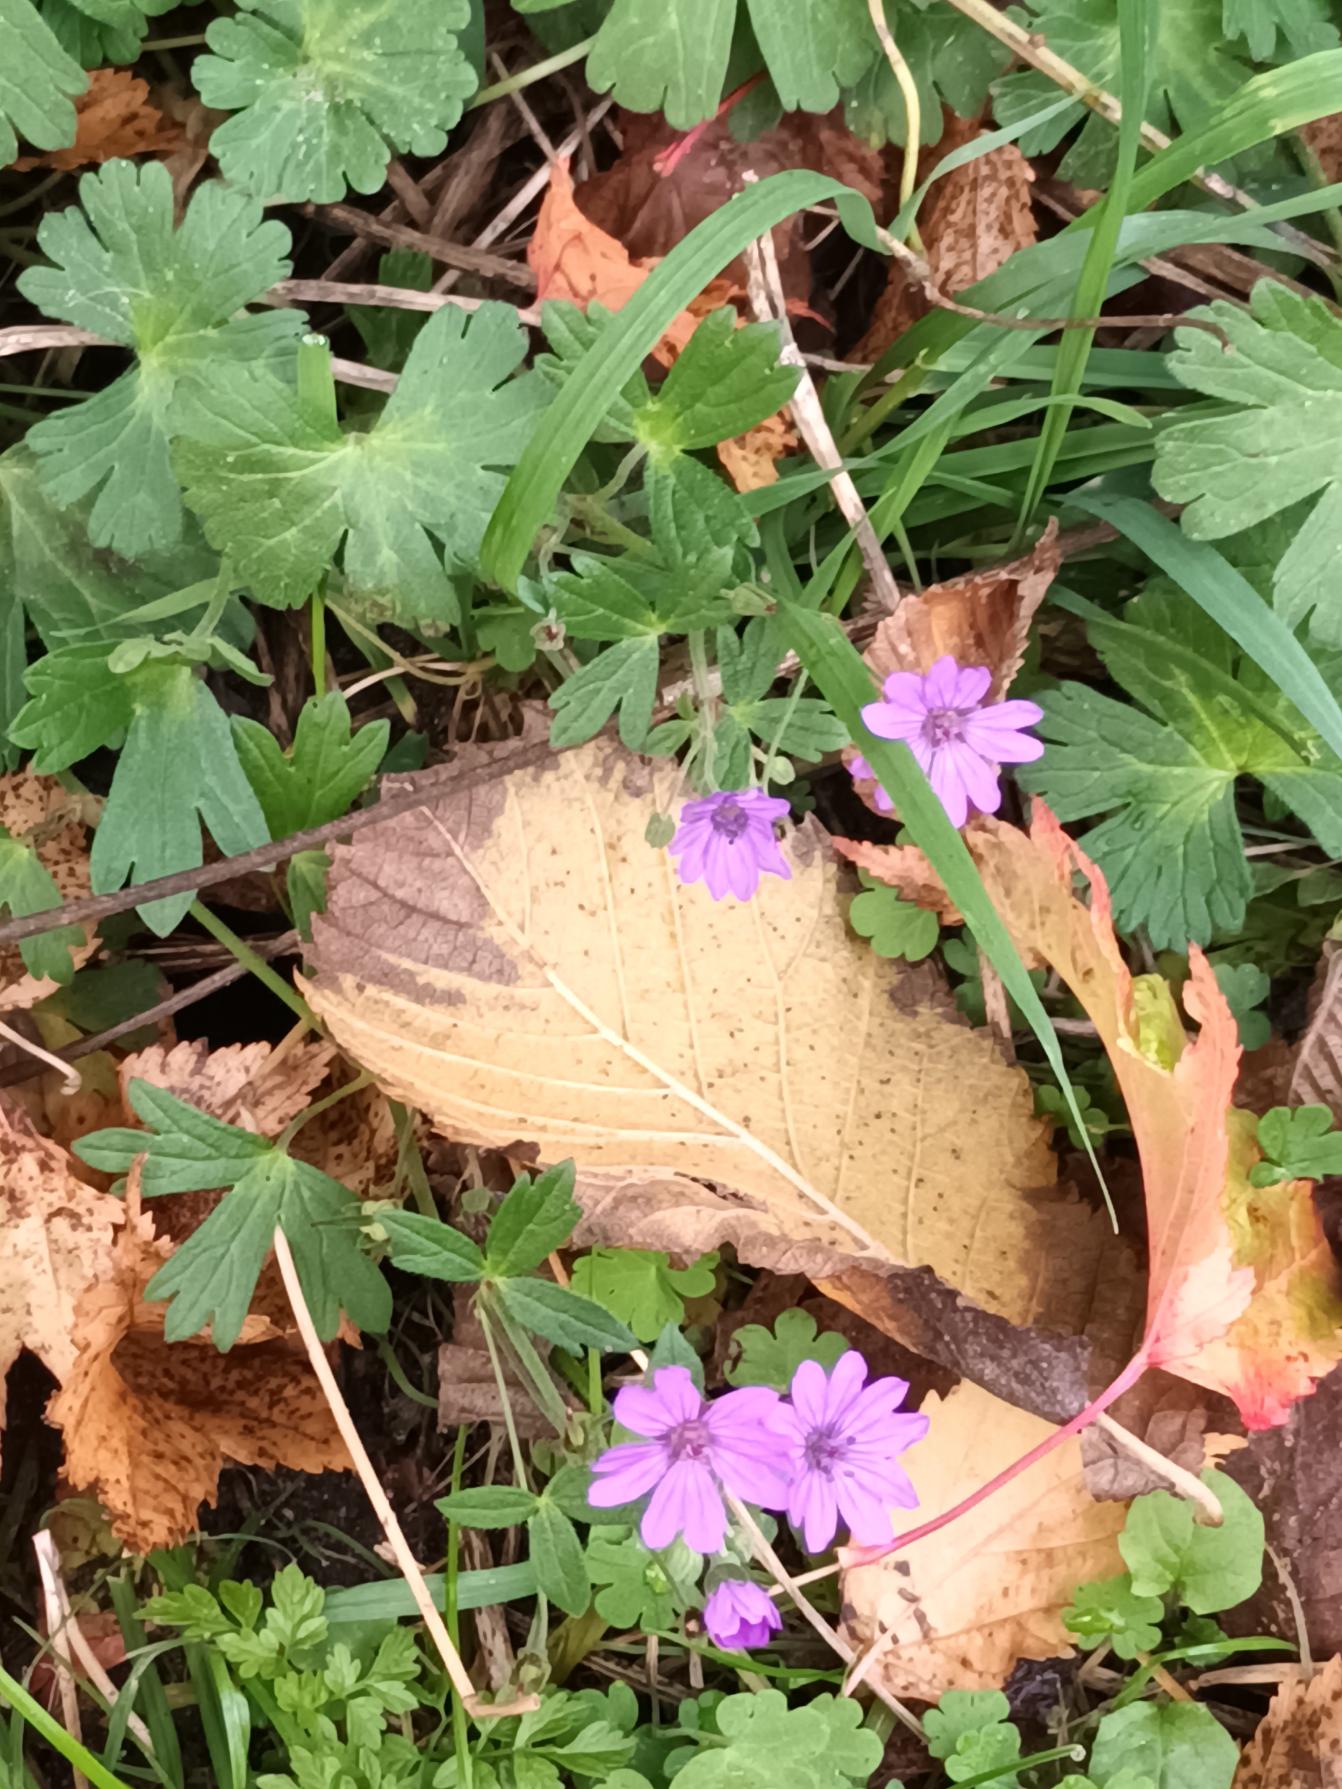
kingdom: Plantae
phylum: Tracheophyta
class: Magnoliopsida
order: Geraniales
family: Geraniaceae
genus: Geranium
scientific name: Geranium pyrenaicum
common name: Pyrenæisk storkenæb
